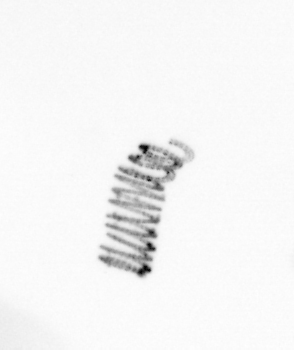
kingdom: Chromista
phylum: Ochrophyta
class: Bacillariophyceae
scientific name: Bacillariophyceae
